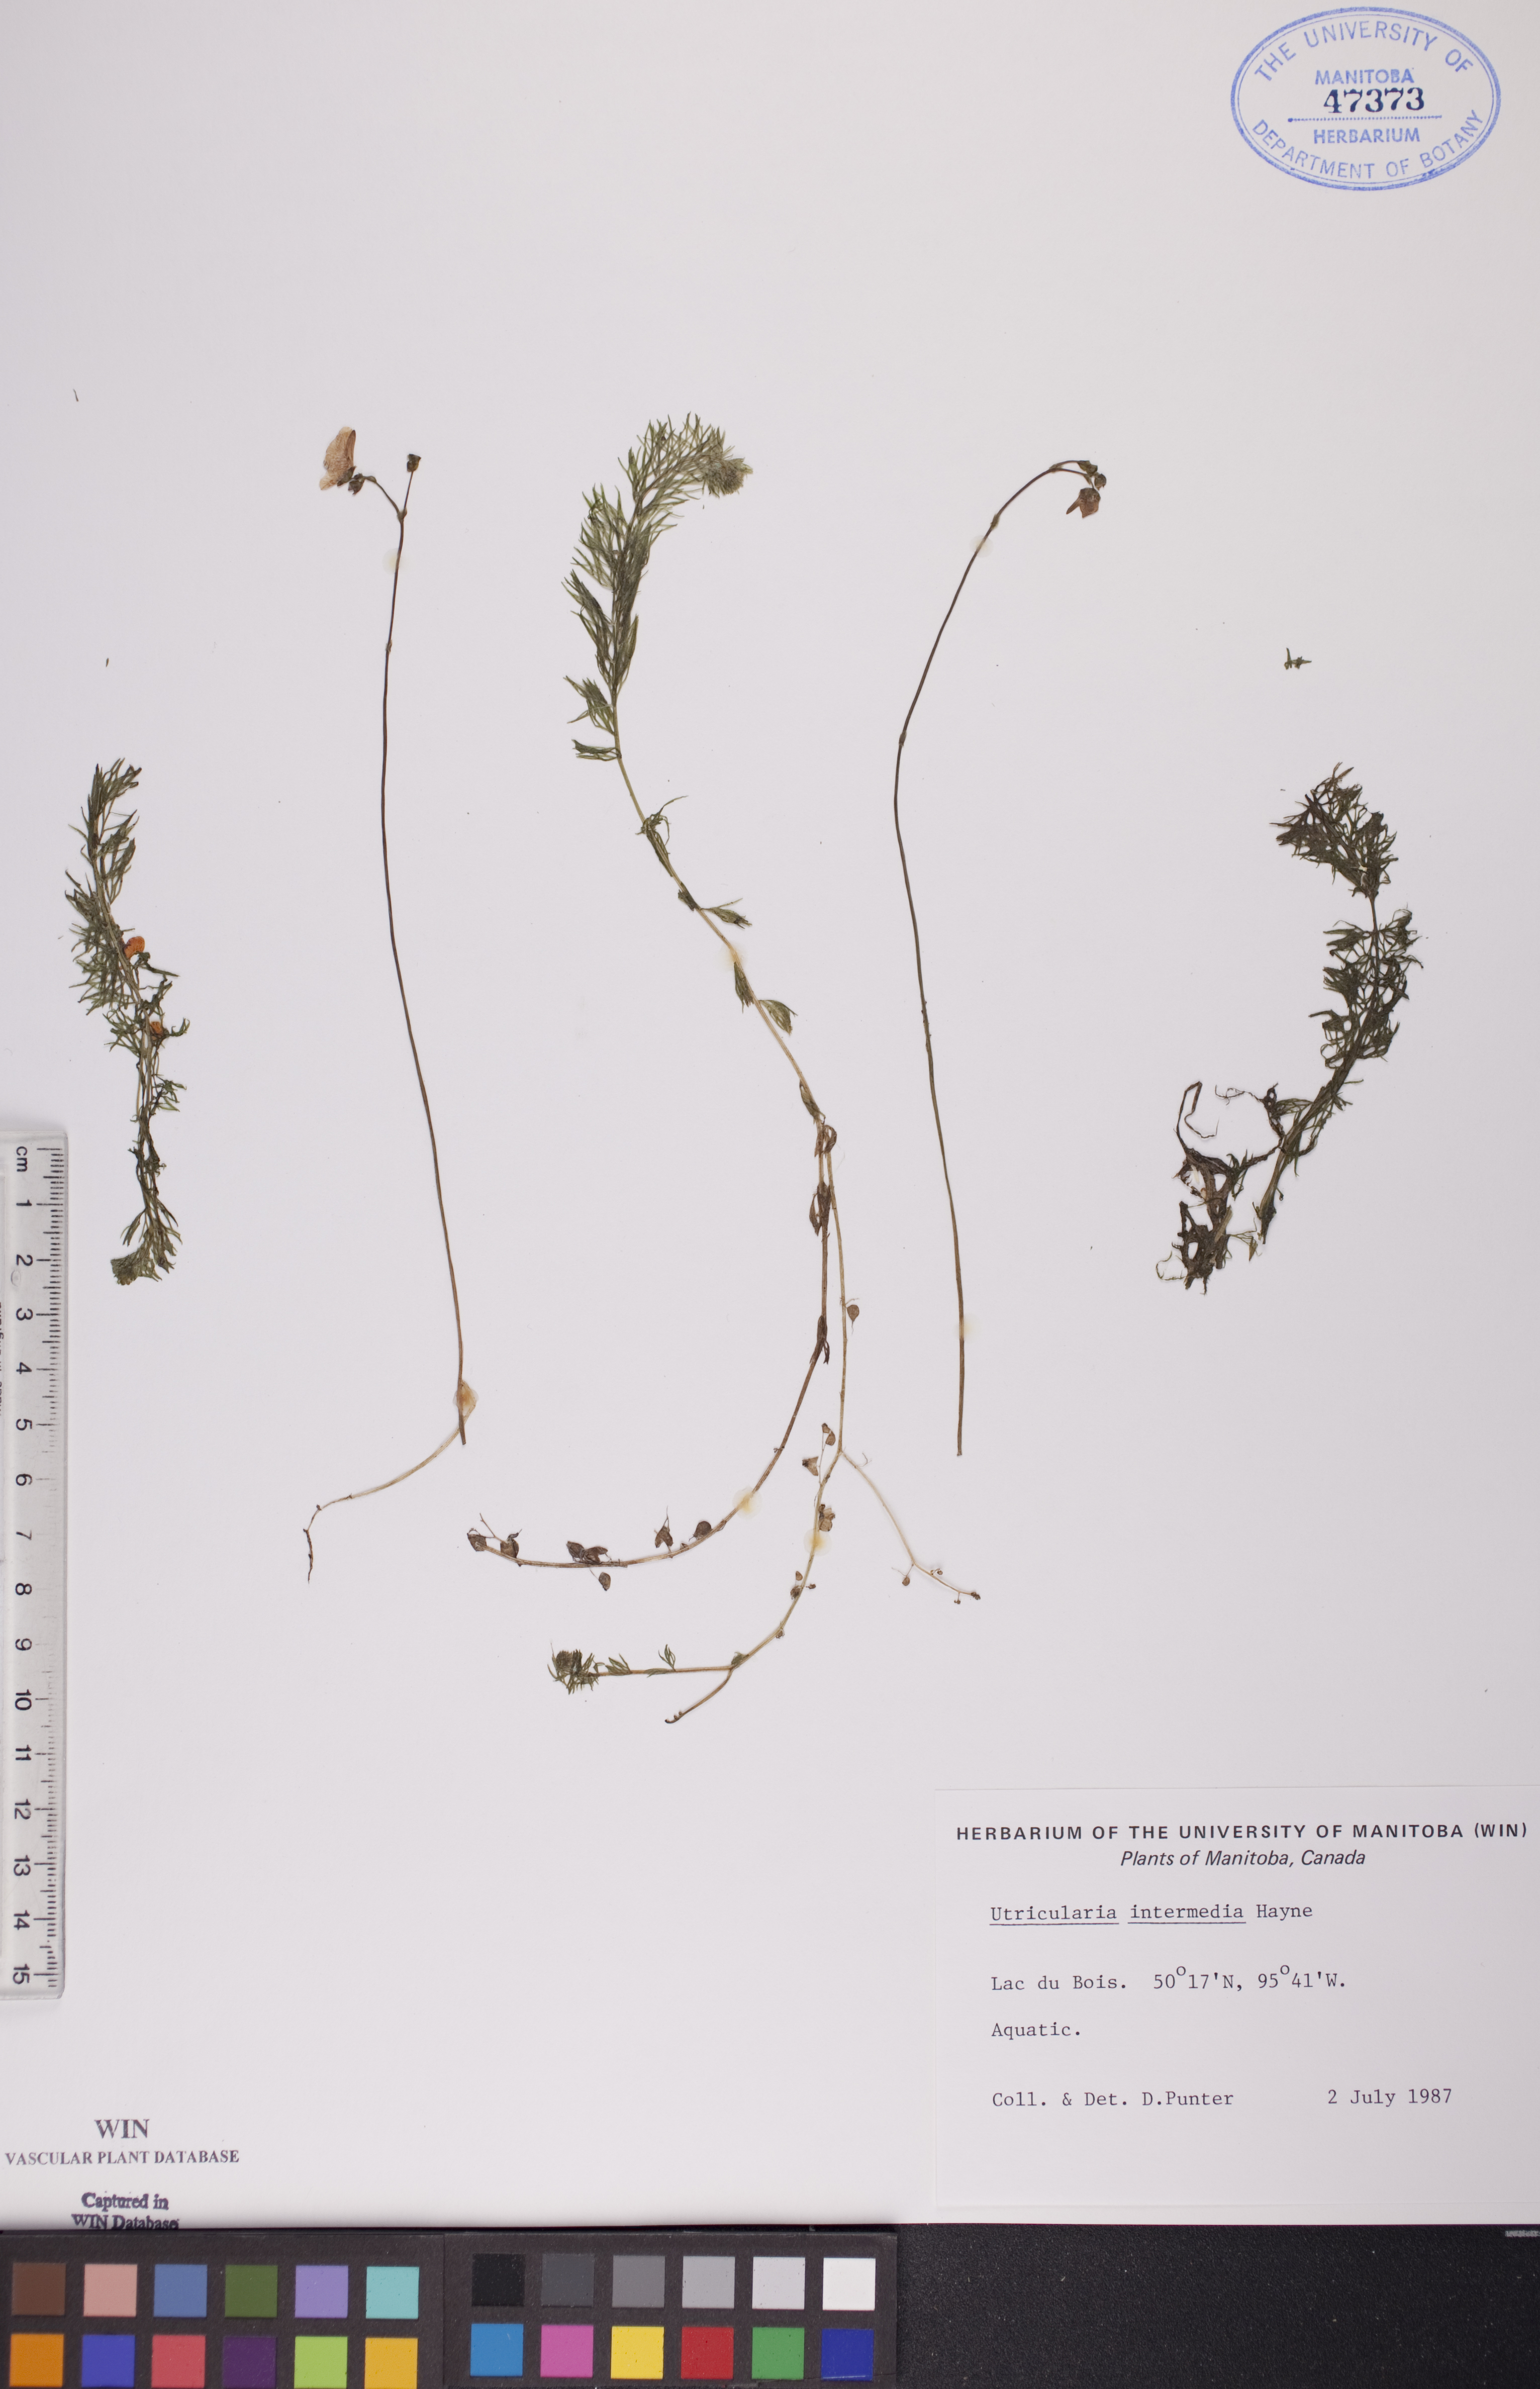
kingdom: Plantae
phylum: Tracheophyta
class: Magnoliopsida
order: Lamiales
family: Lentibulariaceae
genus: Utricularia
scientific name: Utricularia intermedia
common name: Intermediate bladderwort
